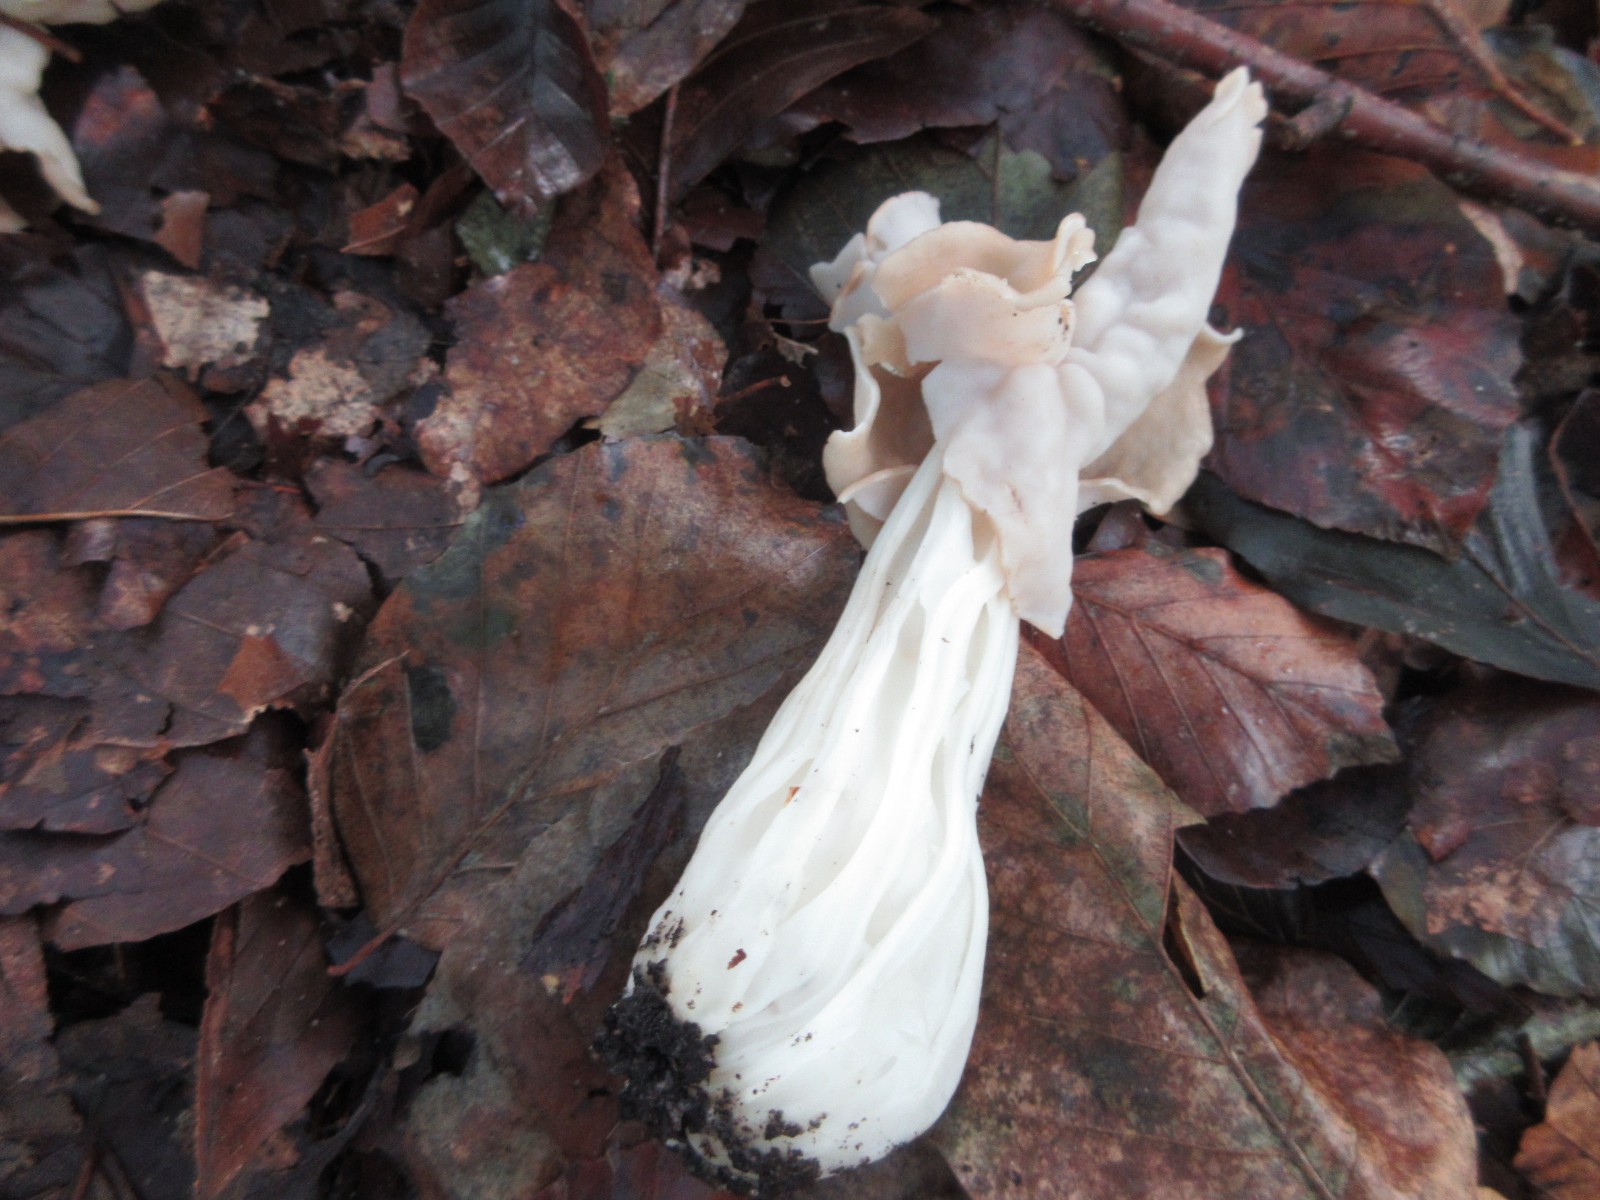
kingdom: Fungi
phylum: Ascomycota
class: Pezizomycetes
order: Pezizales
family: Helvellaceae
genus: Helvella
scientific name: Helvella crispa
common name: kruset foldhat
